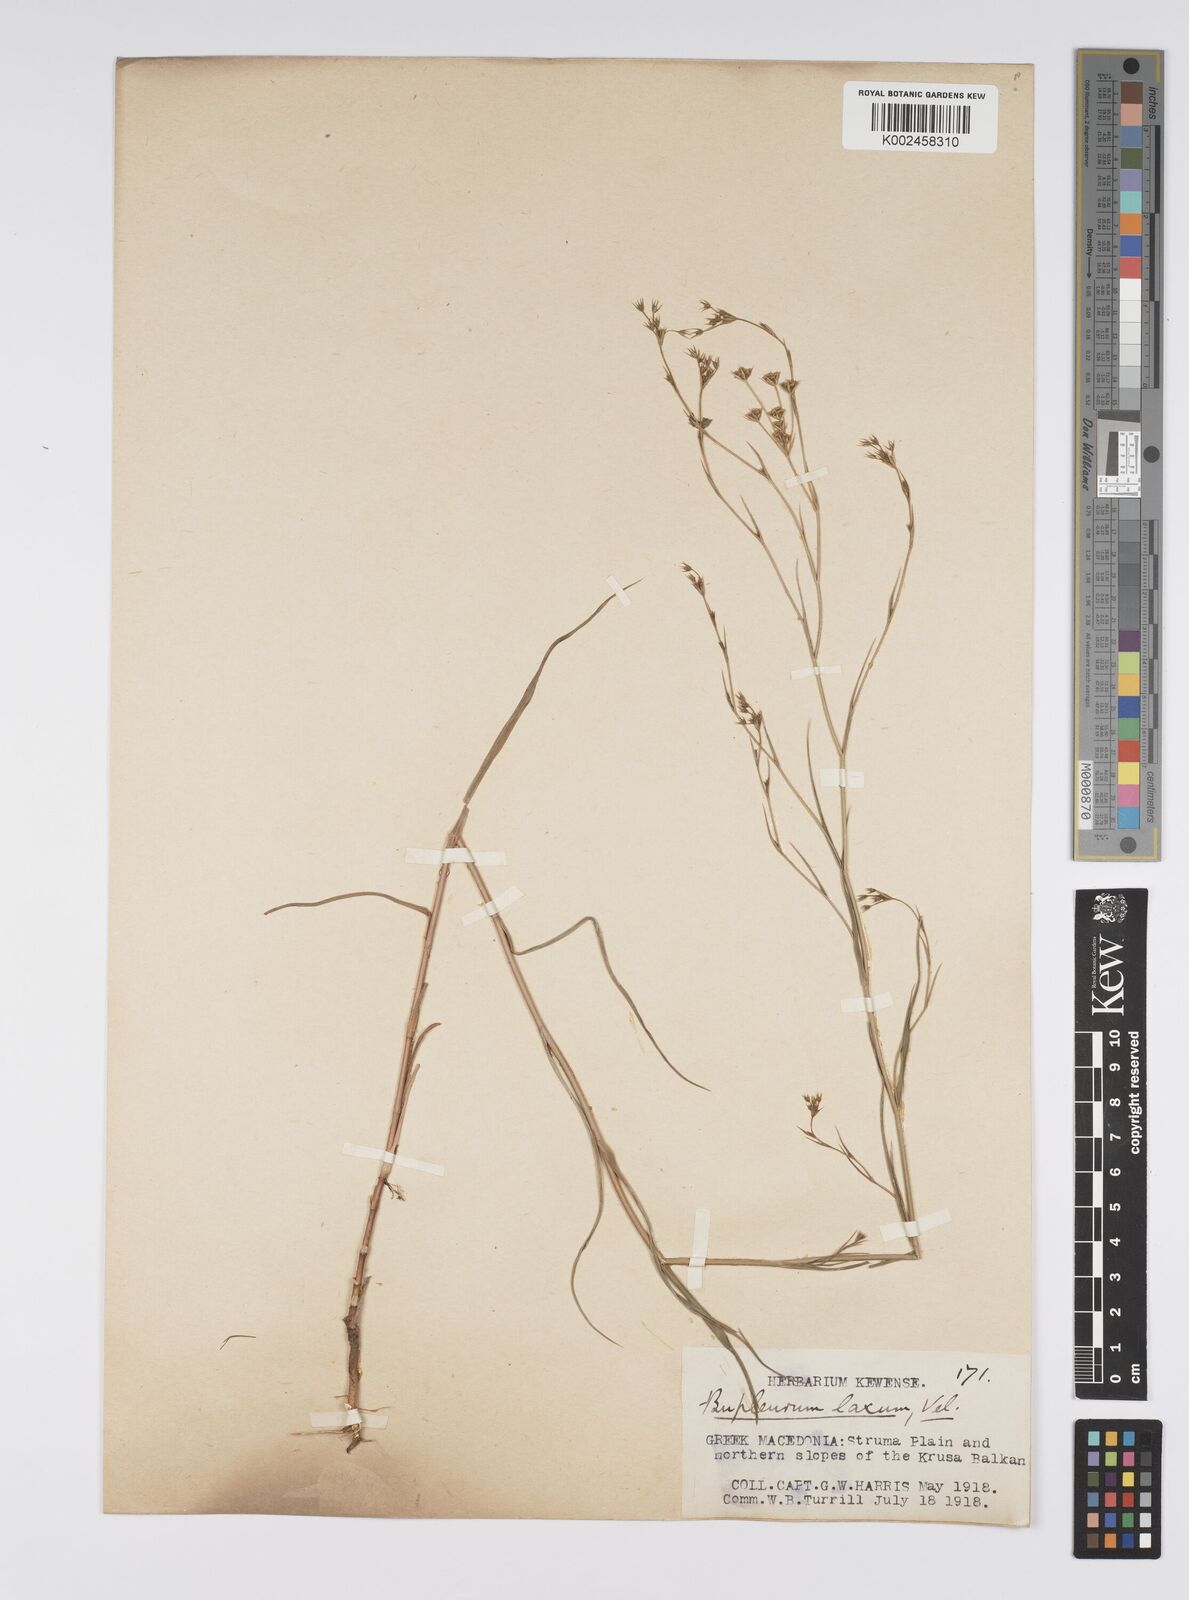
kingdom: Plantae
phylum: Tracheophyta
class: Magnoliopsida
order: Apiales
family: Apiaceae
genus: Bupleurum
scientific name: Bupleurum commutatum
